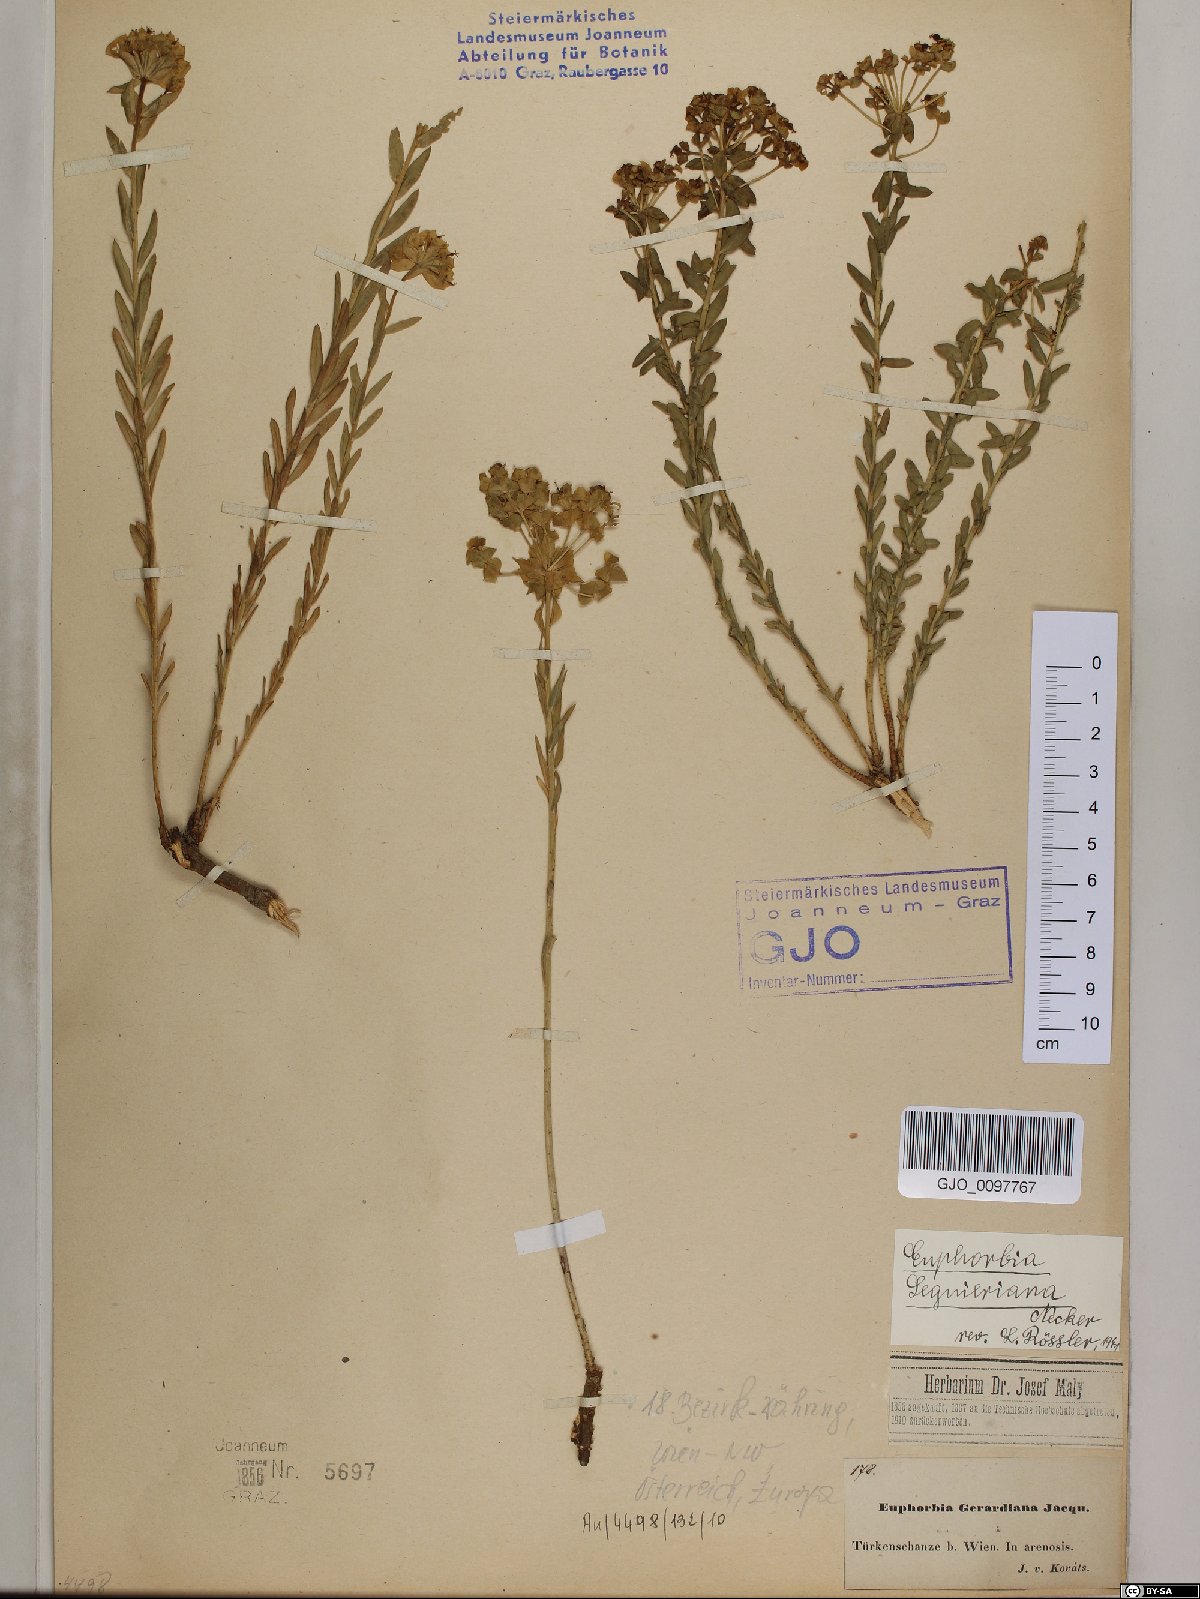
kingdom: Plantae
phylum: Tracheophyta
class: Magnoliopsida
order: Malpighiales
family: Euphorbiaceae
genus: Euphorbia
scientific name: Euphorbia seguieriana
